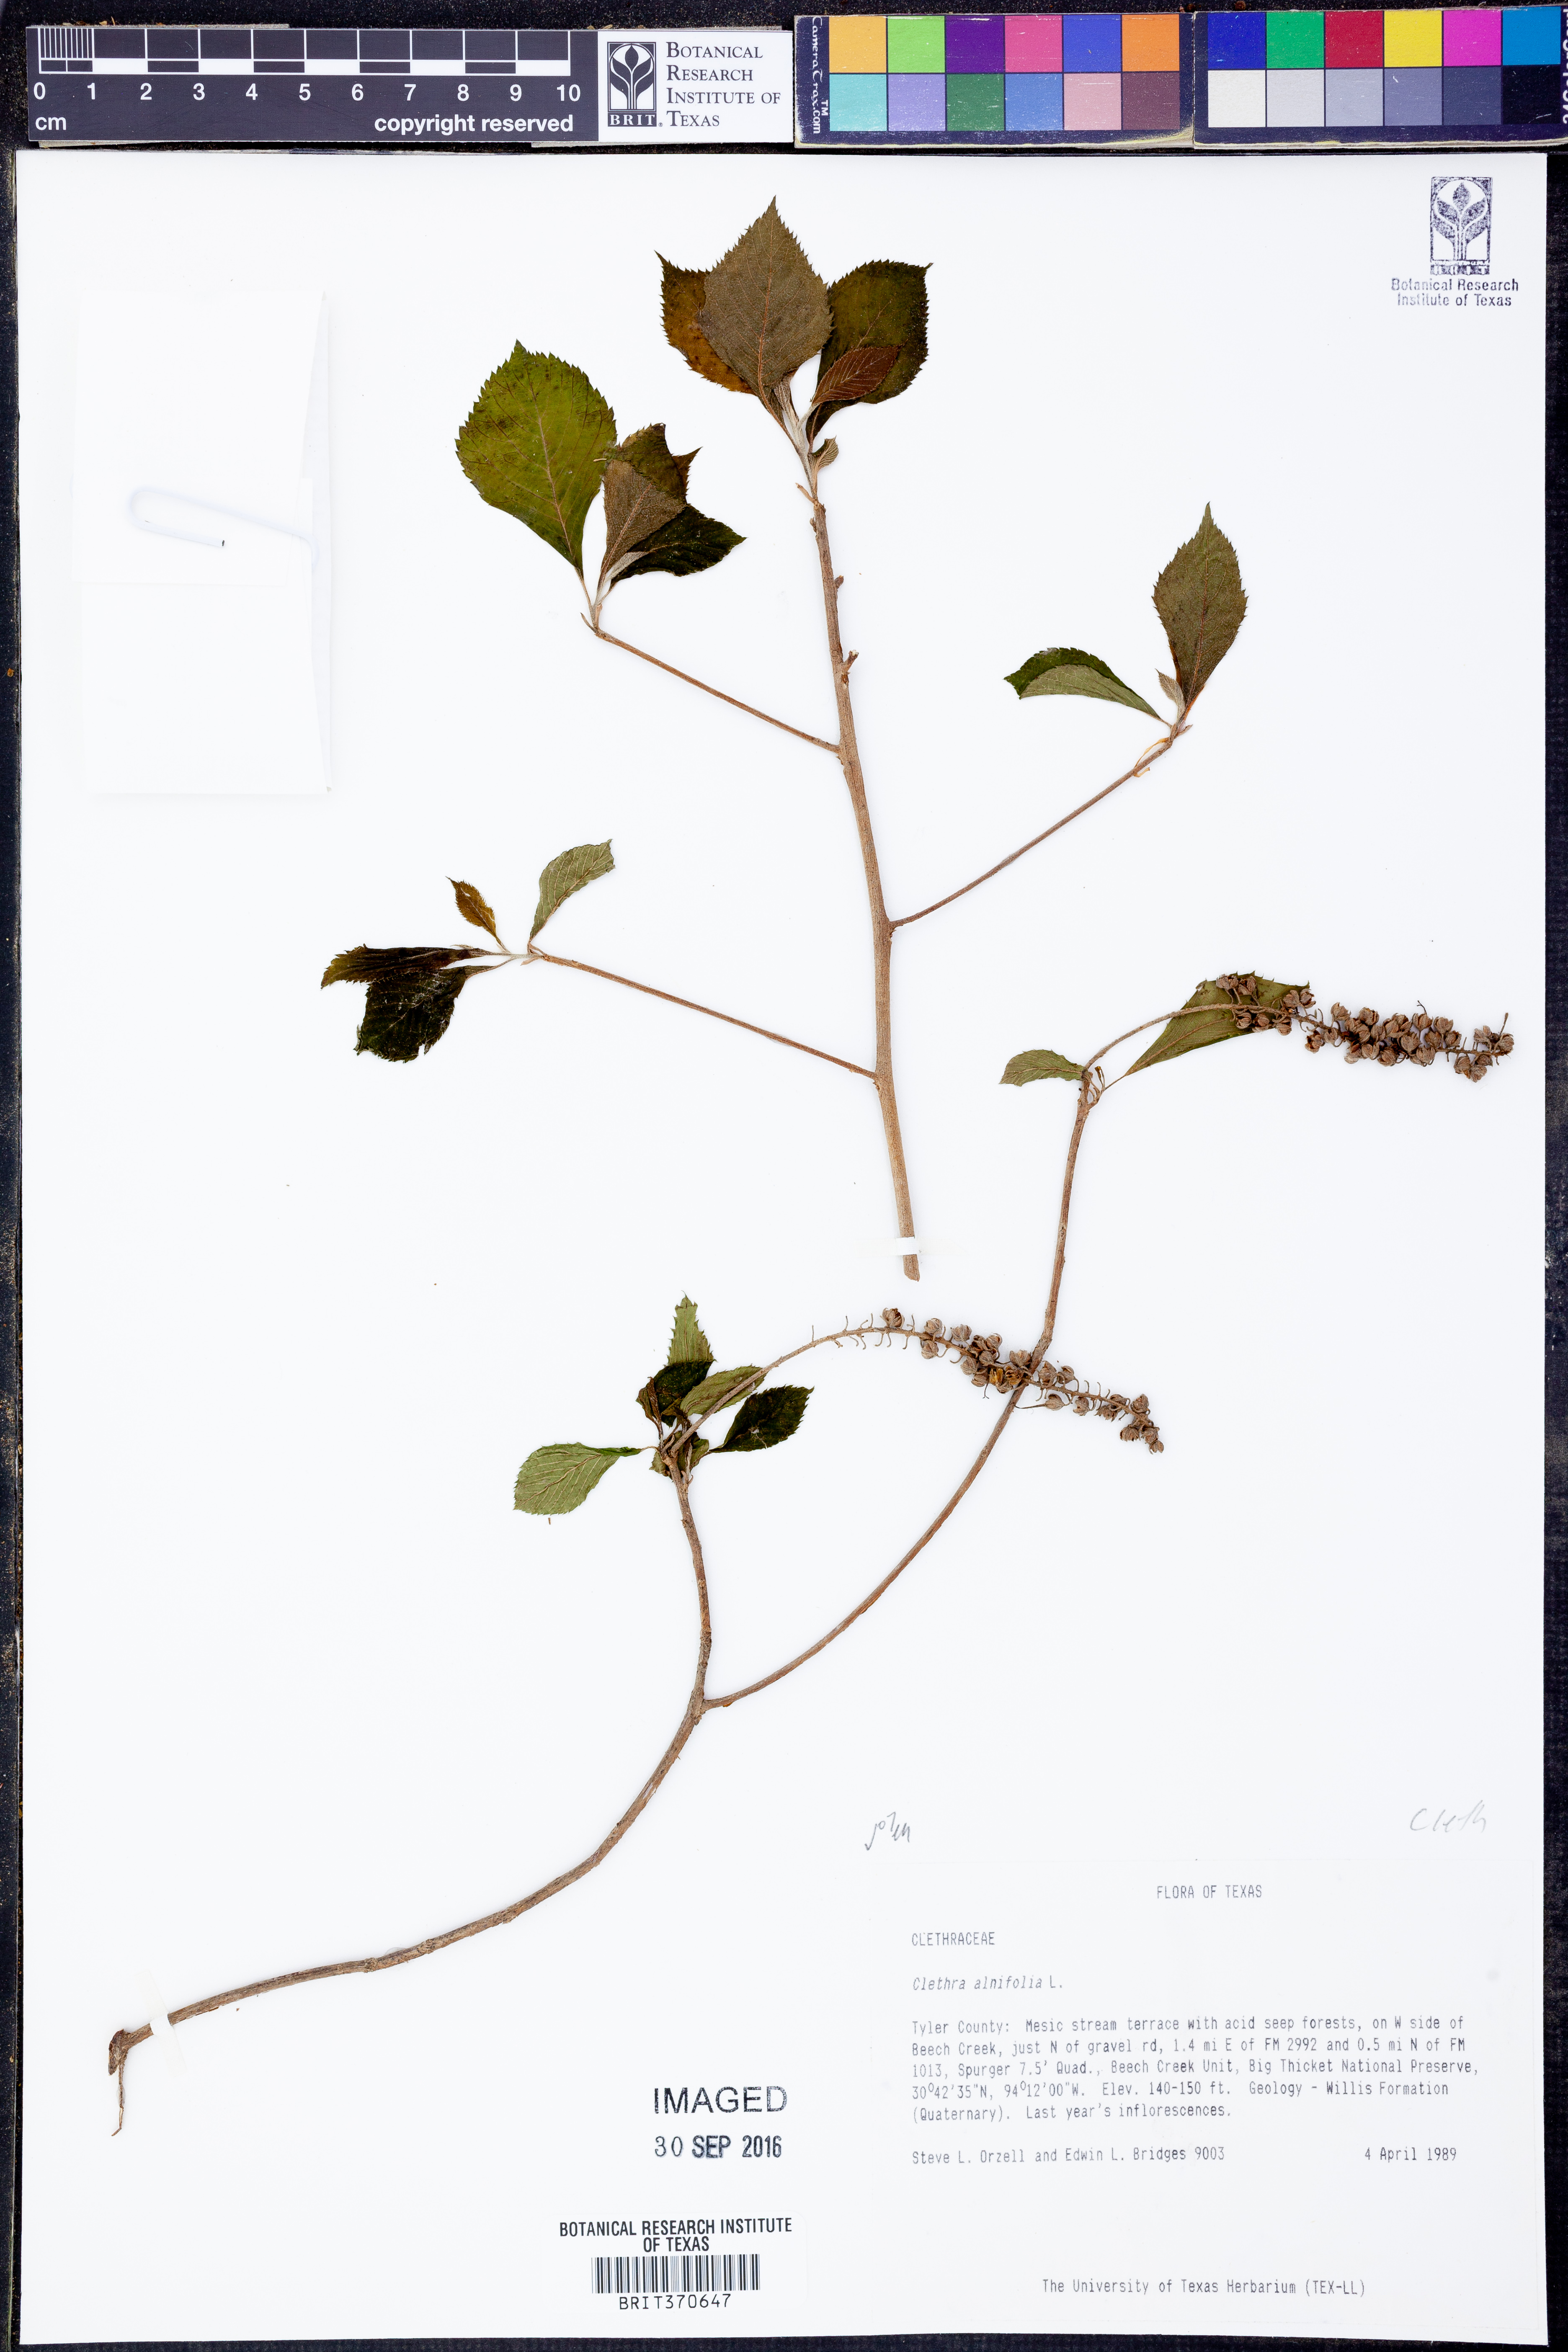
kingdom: Plantae
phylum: Tracheophyta
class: Magnoliopsida
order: Ericales
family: Clethraceae
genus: Clethra
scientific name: Clethra alnifolia
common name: Sweet pepperbush
